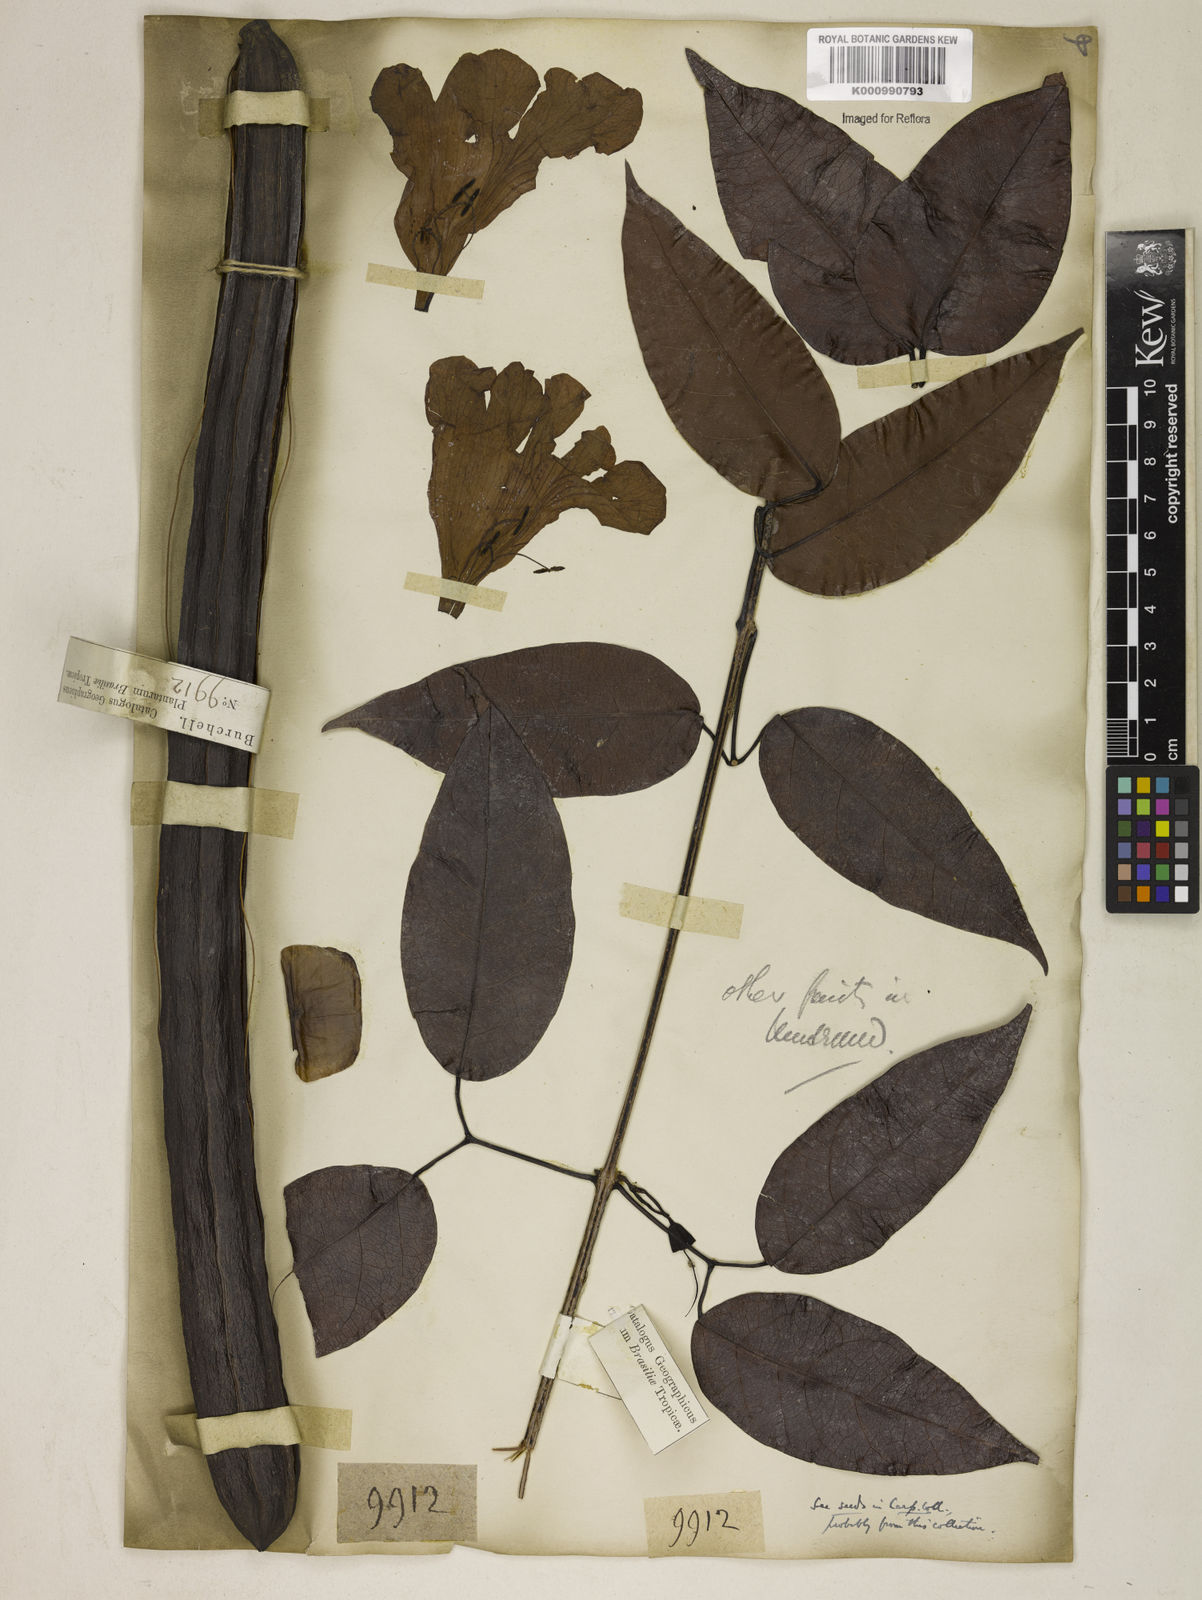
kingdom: Plantae
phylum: Tracheophyta
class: Magnoliopsida
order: Lamiales
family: Bignoniaceae
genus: Bignonia
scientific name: Bignonia aequinoctialis
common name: Garlicvine
